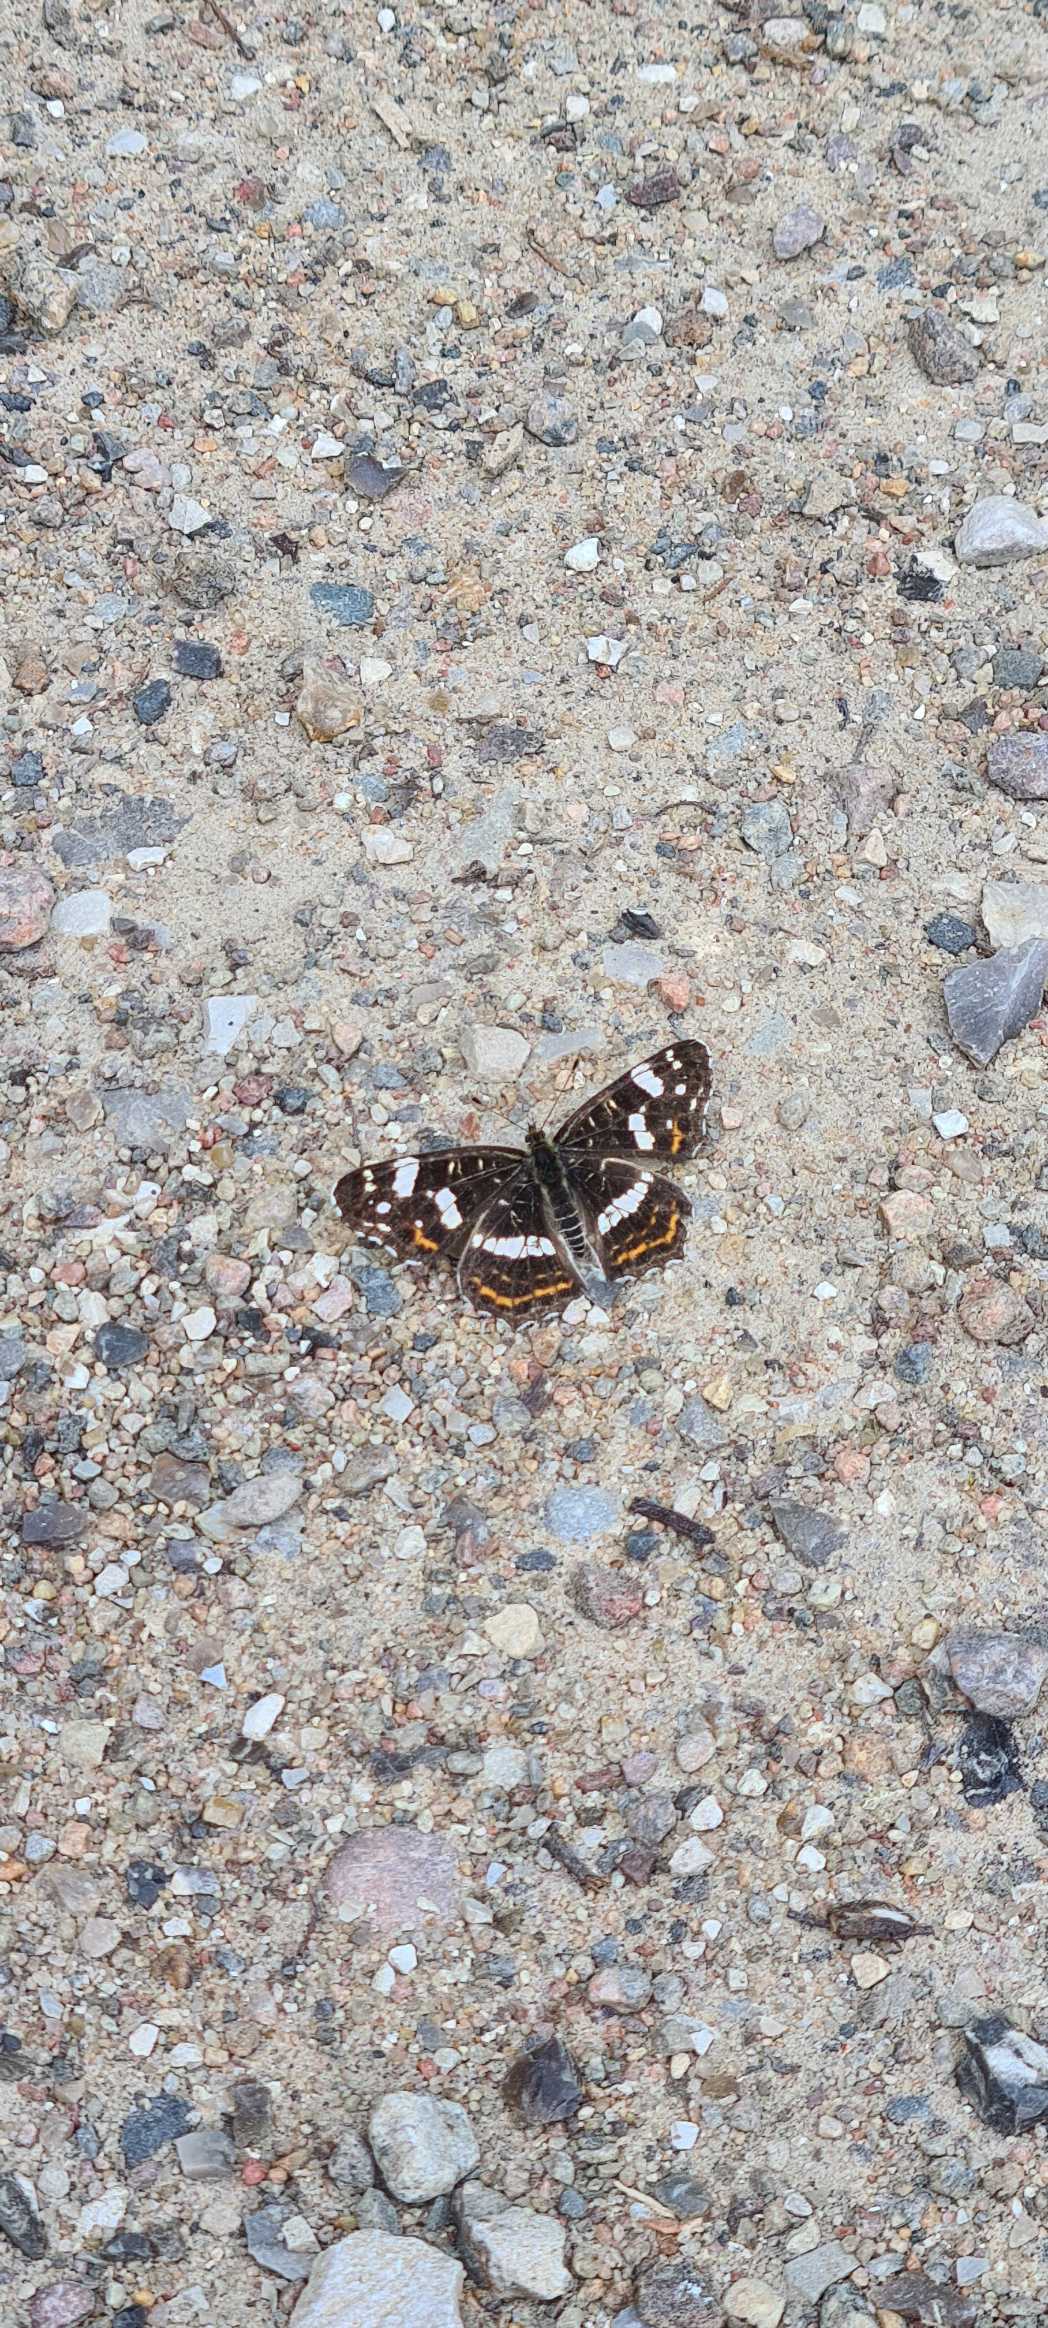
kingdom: Animalia
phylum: Arthropoda
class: Insecta
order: Lepidoptera
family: Nymphalidae
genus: Araschnia
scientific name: Araschnia levana
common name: Nældesommerfugl
